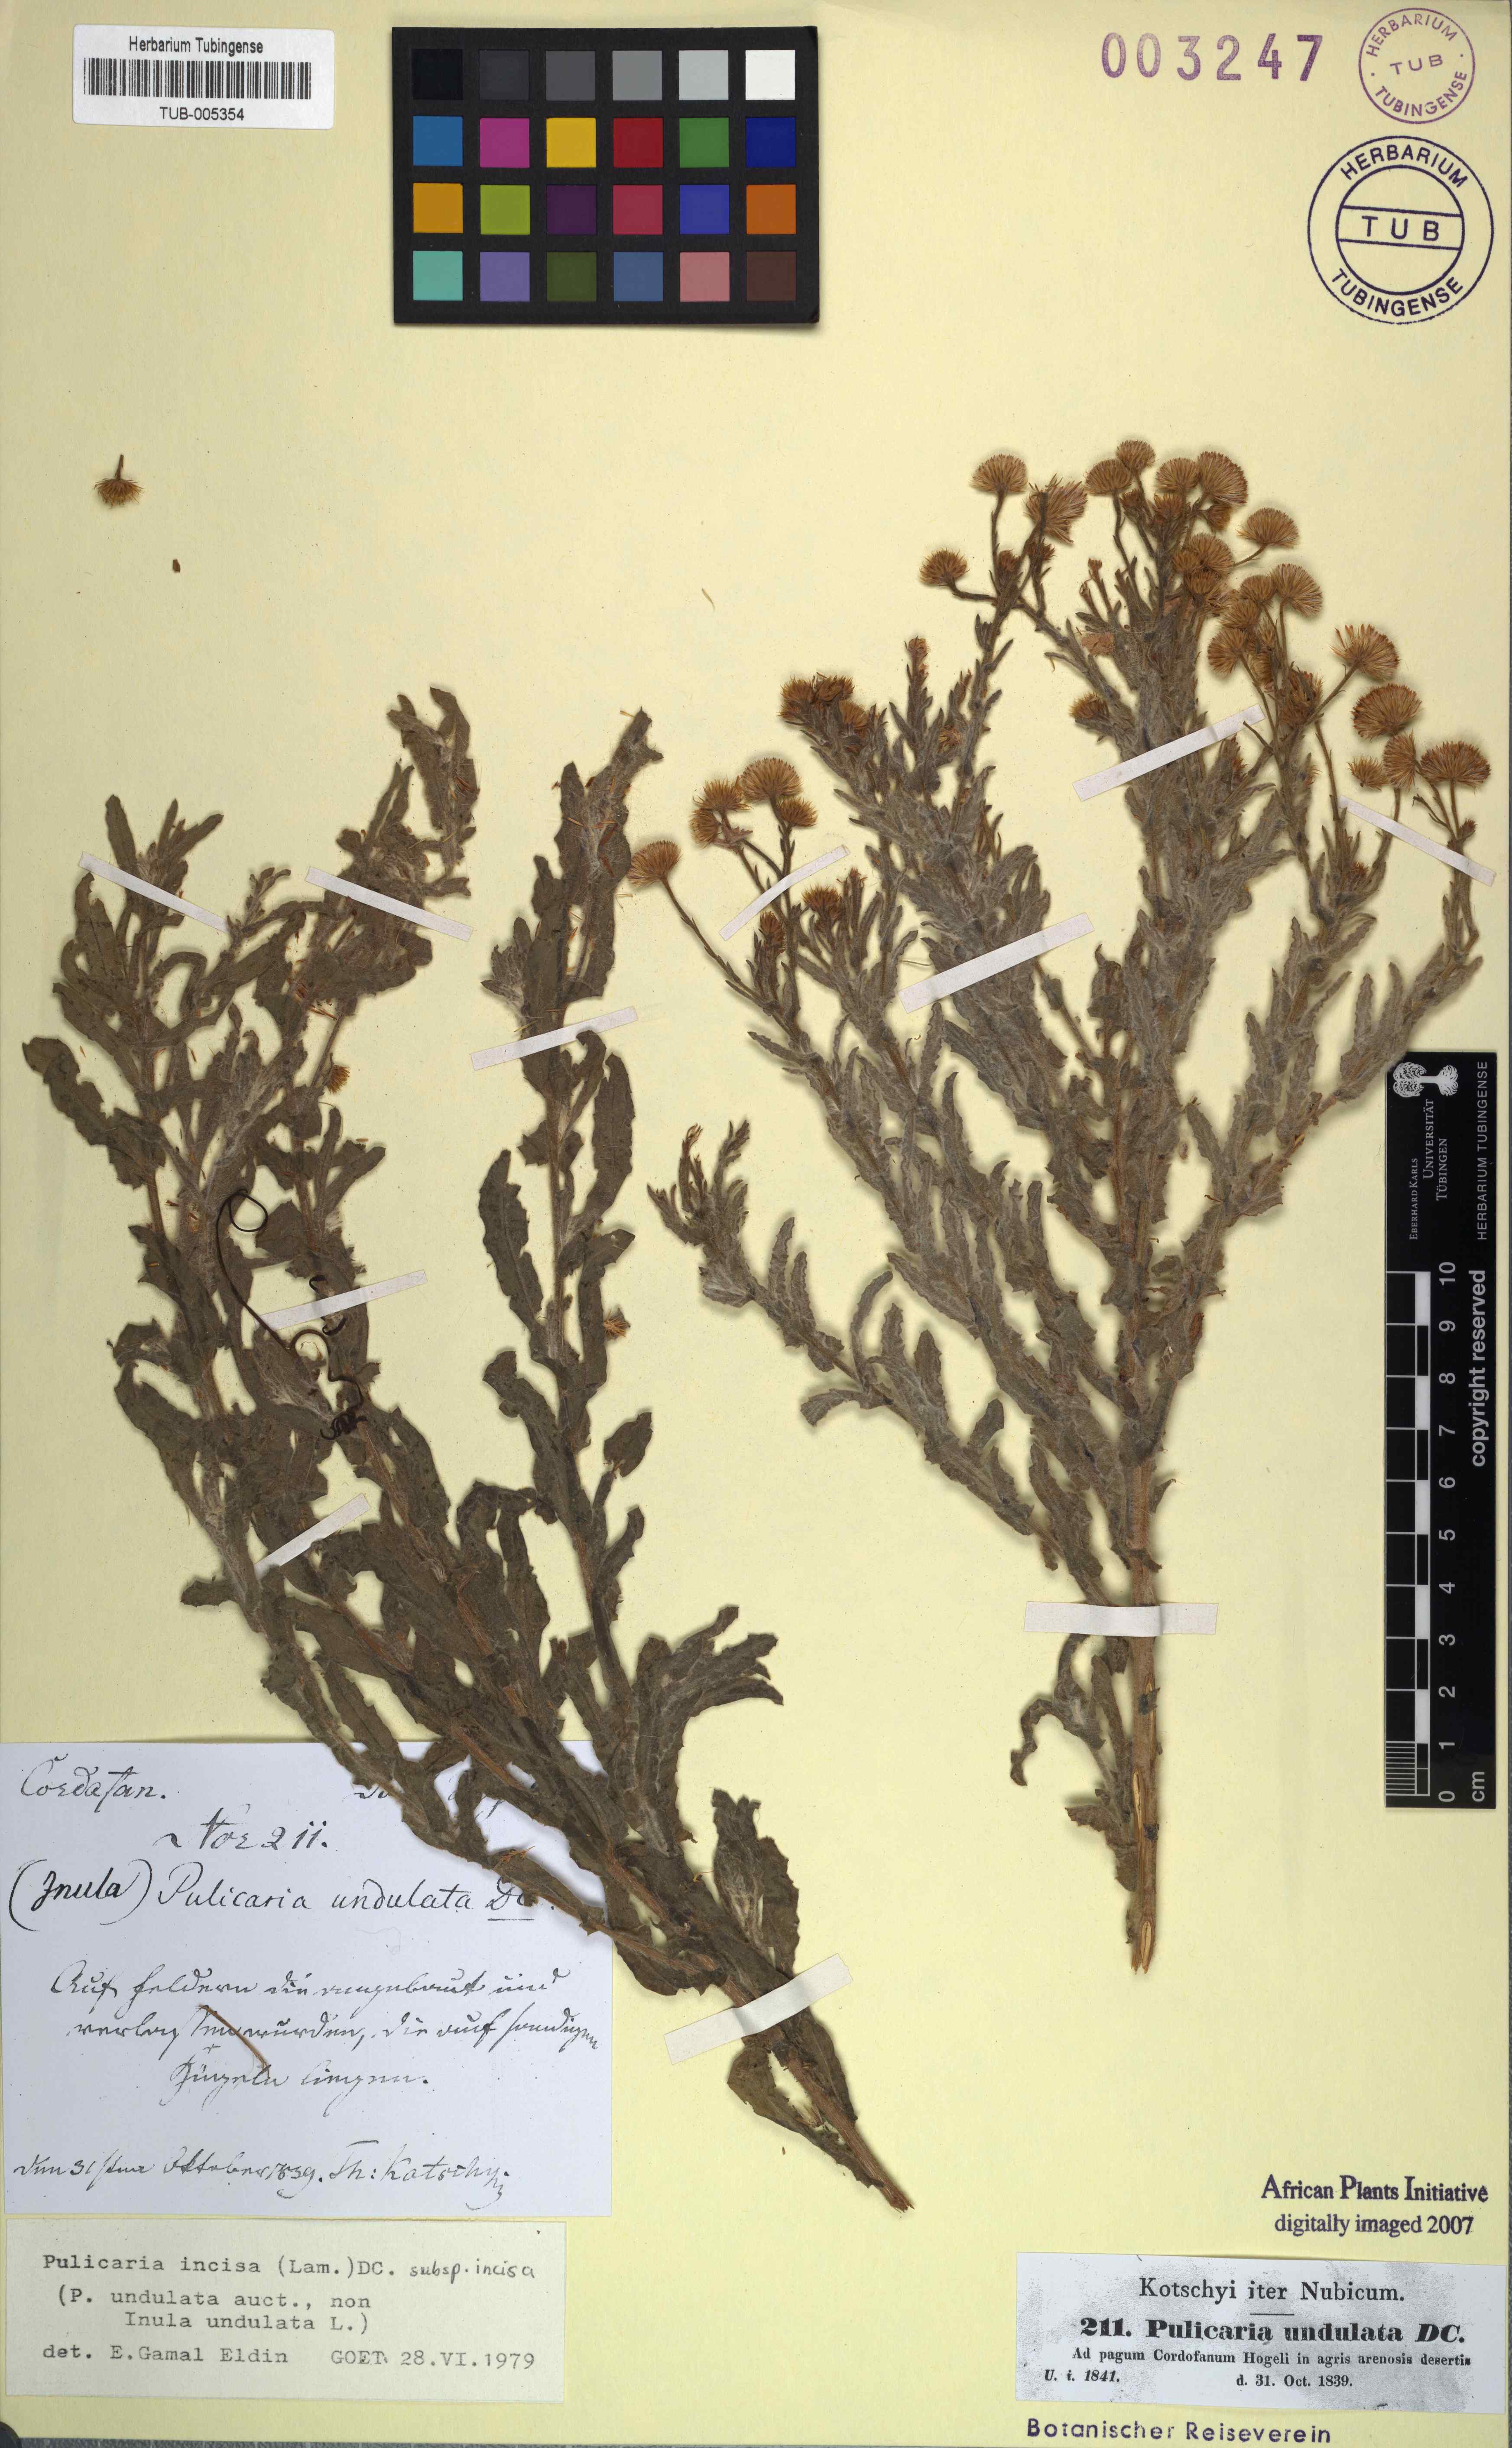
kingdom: Plantae
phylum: Tracheophyta
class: Magnoliopsida
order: Asterales
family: Asteraceae
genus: Pulicaria
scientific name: Pulicaria incisa
